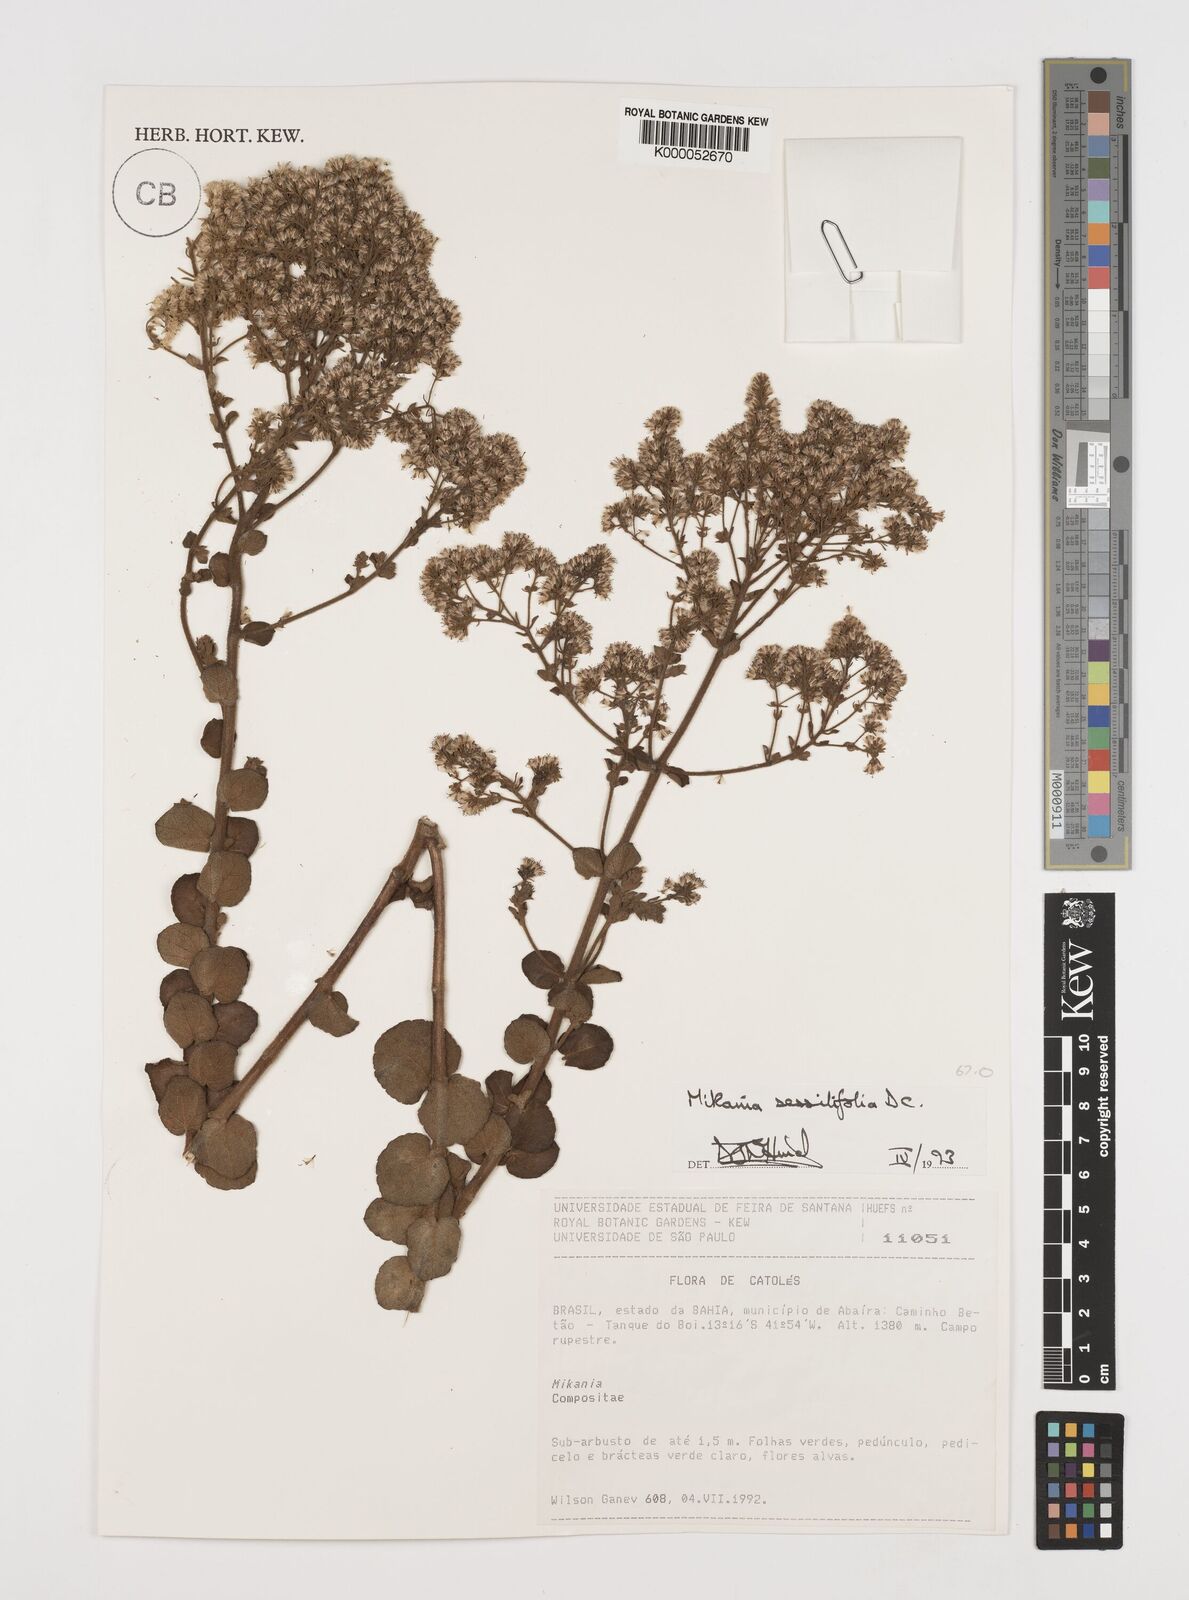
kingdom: Plantae
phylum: Tracheophyta
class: Magnoliopsida
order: Asterales
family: Asteraceae
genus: Mikania
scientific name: Mikania sessilifolia
